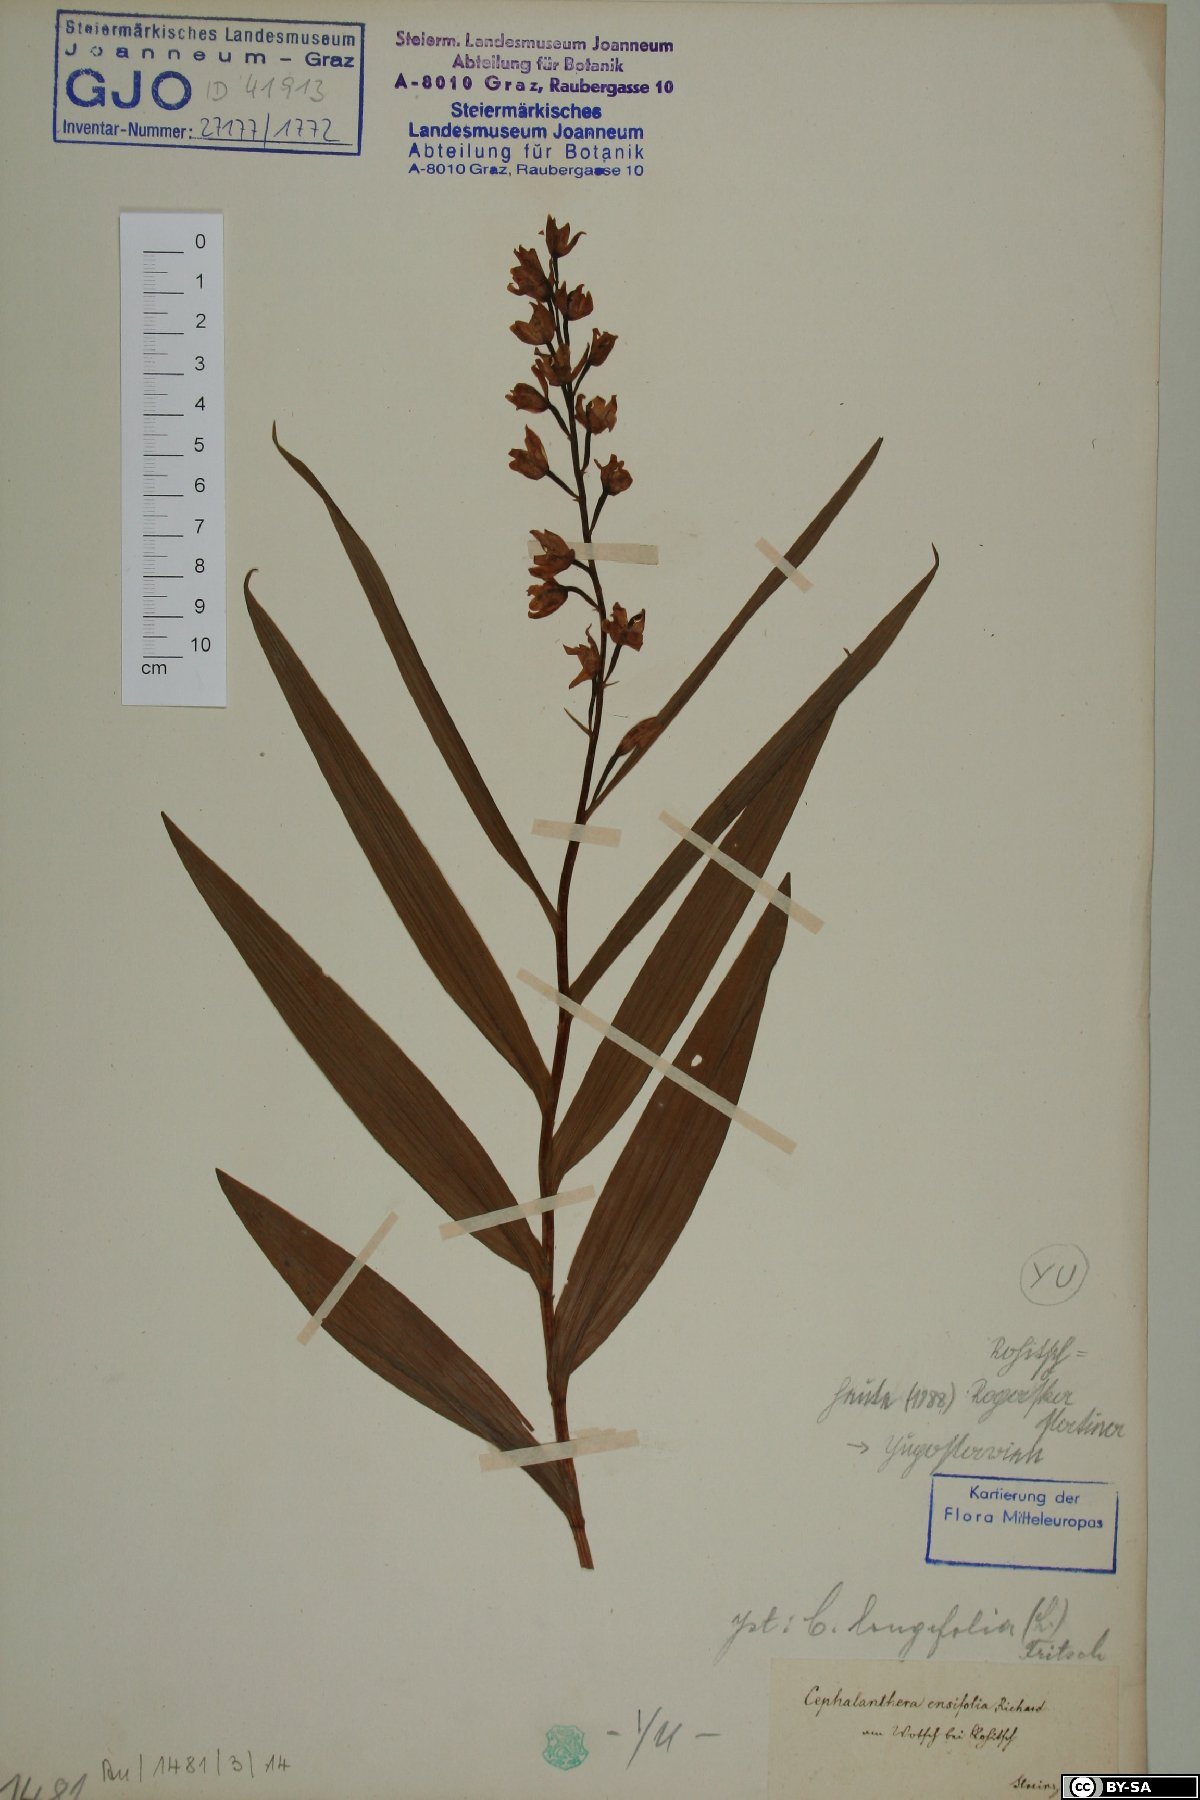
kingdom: Plantae
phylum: Tracheophyta
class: Liliopsida
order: Asparagales
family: Orchidaceae
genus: Cephalanthera
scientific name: Cephalanthera longifolia
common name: Narrow-leaved helleborine
